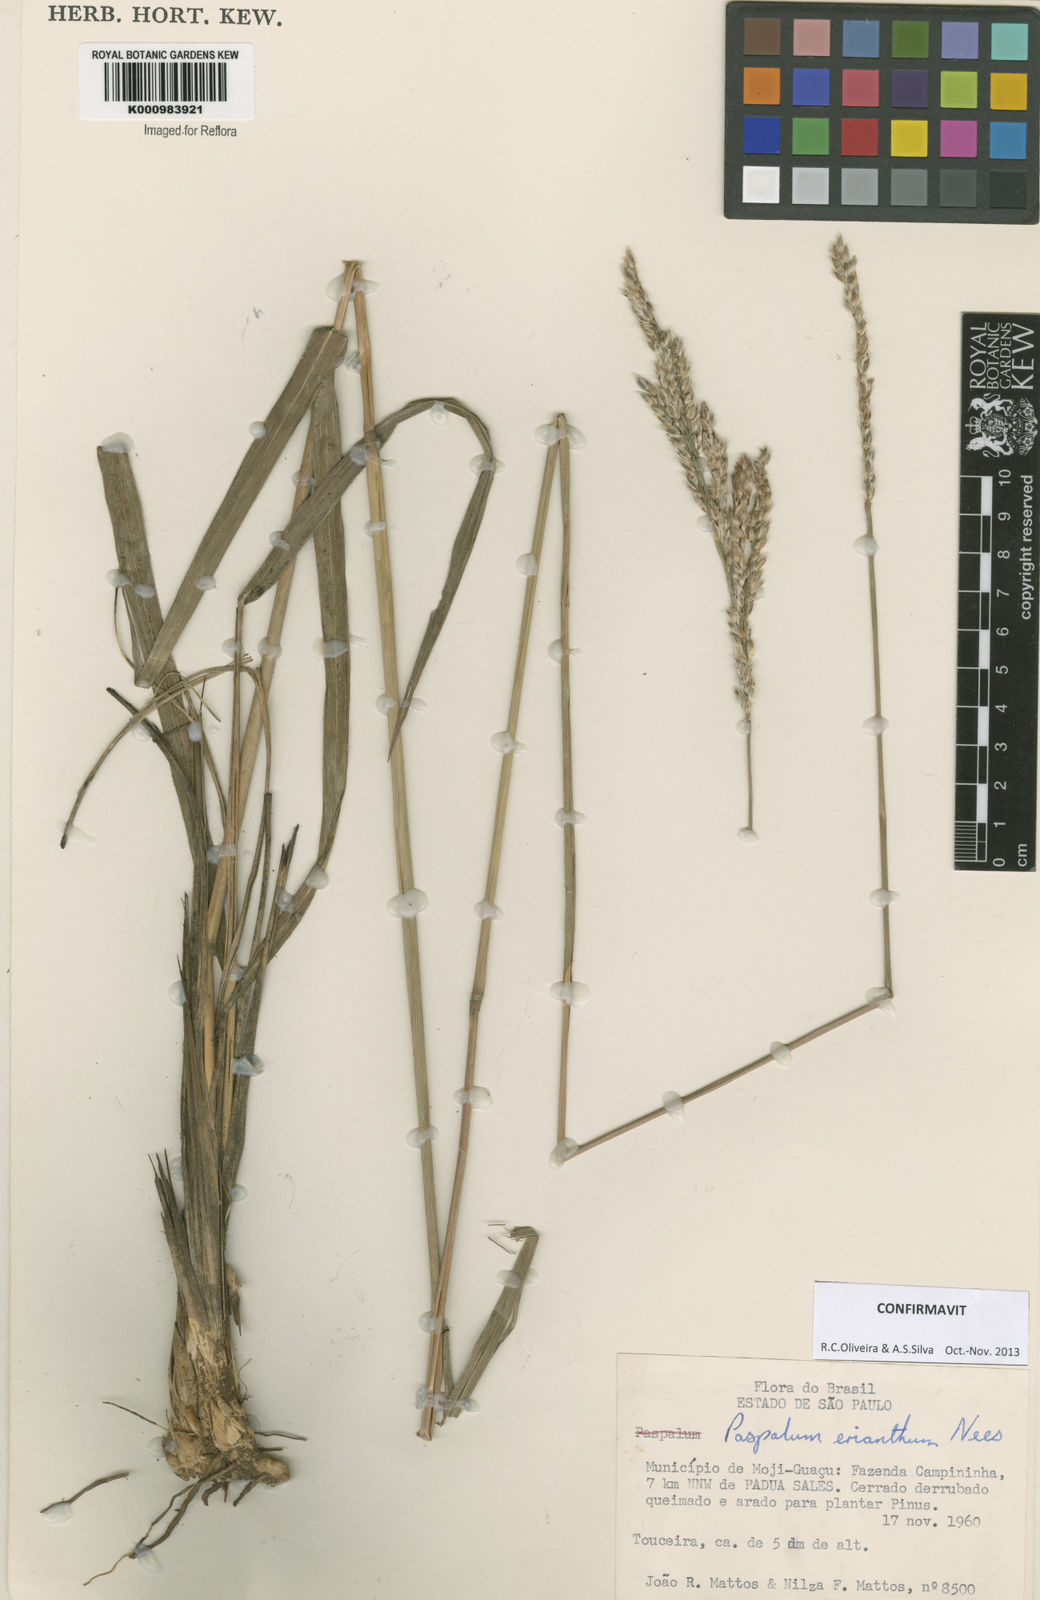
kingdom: Plantae
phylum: Tracheophyta
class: Liliopsida
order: Poales
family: Poaceae
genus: Paspalum
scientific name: Paspalum erianthum
